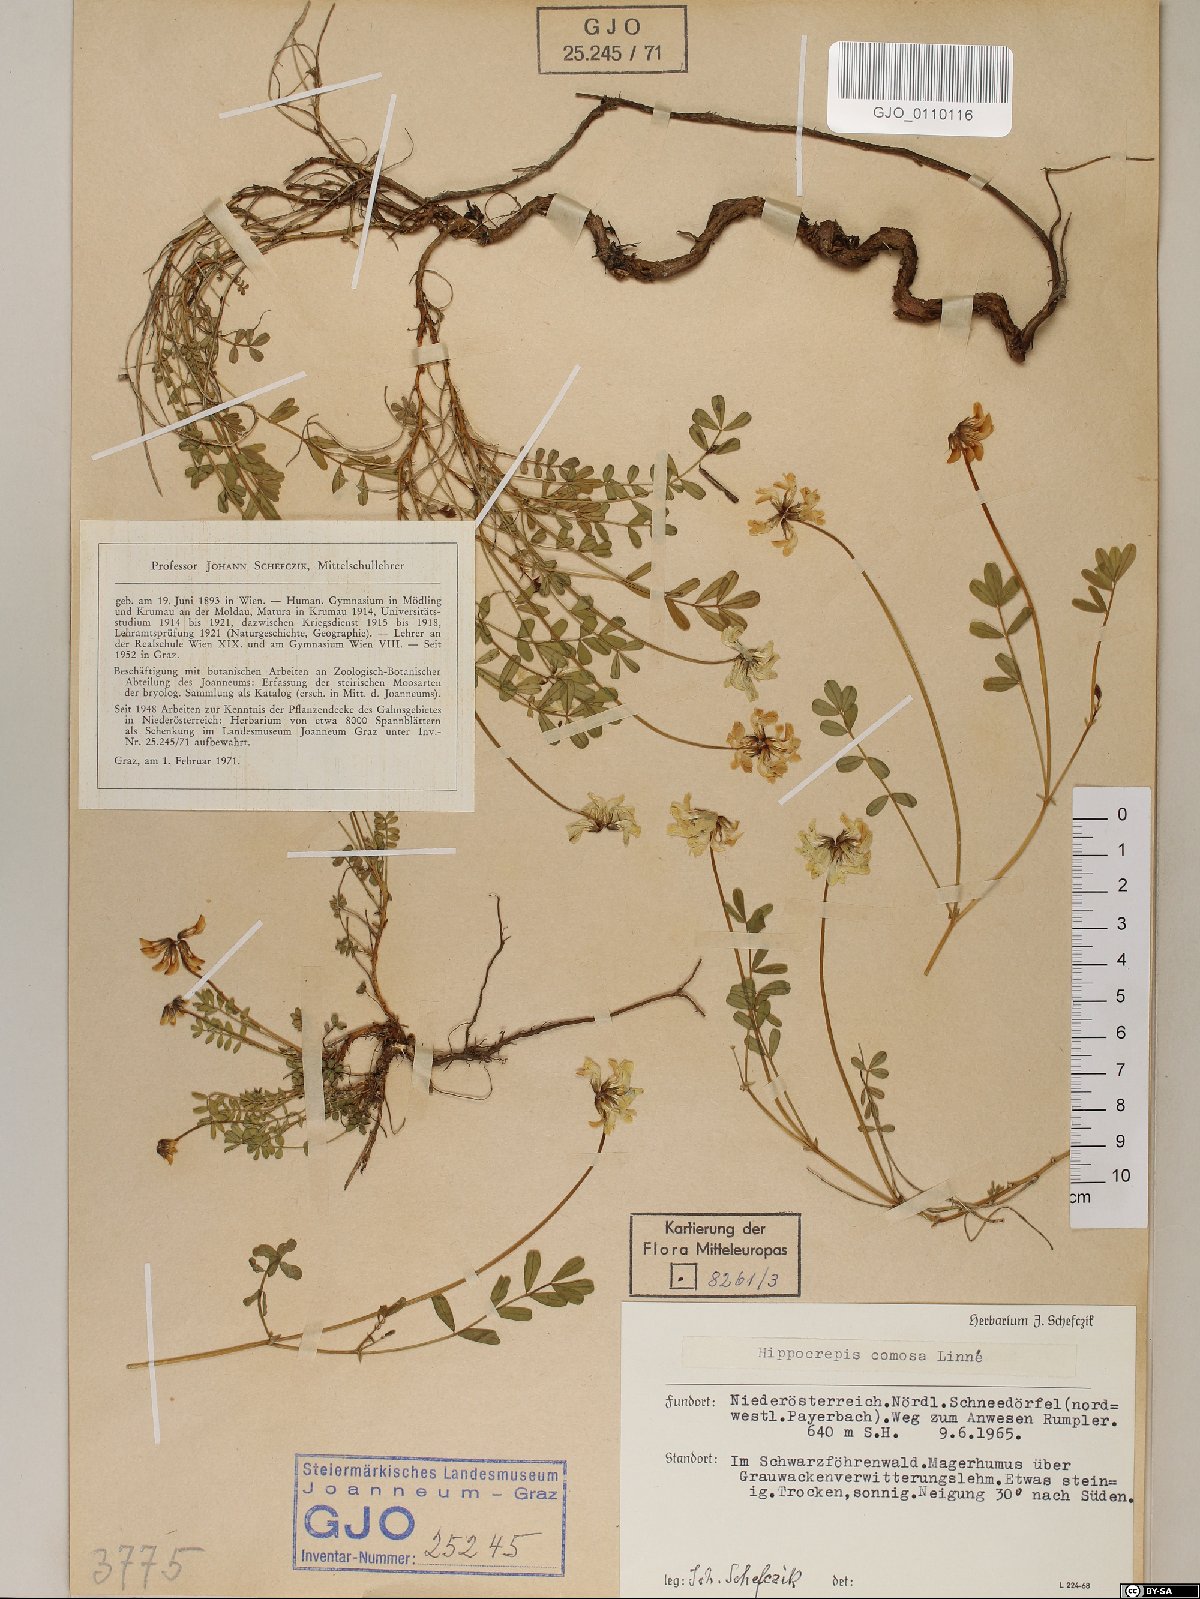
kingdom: Plantae
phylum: Tracheophyta
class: Magnoliopsida
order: Fabales
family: Fabaceae
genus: Hippocrepis
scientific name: Hippocrepis comosa
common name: Horseshoe vetch
